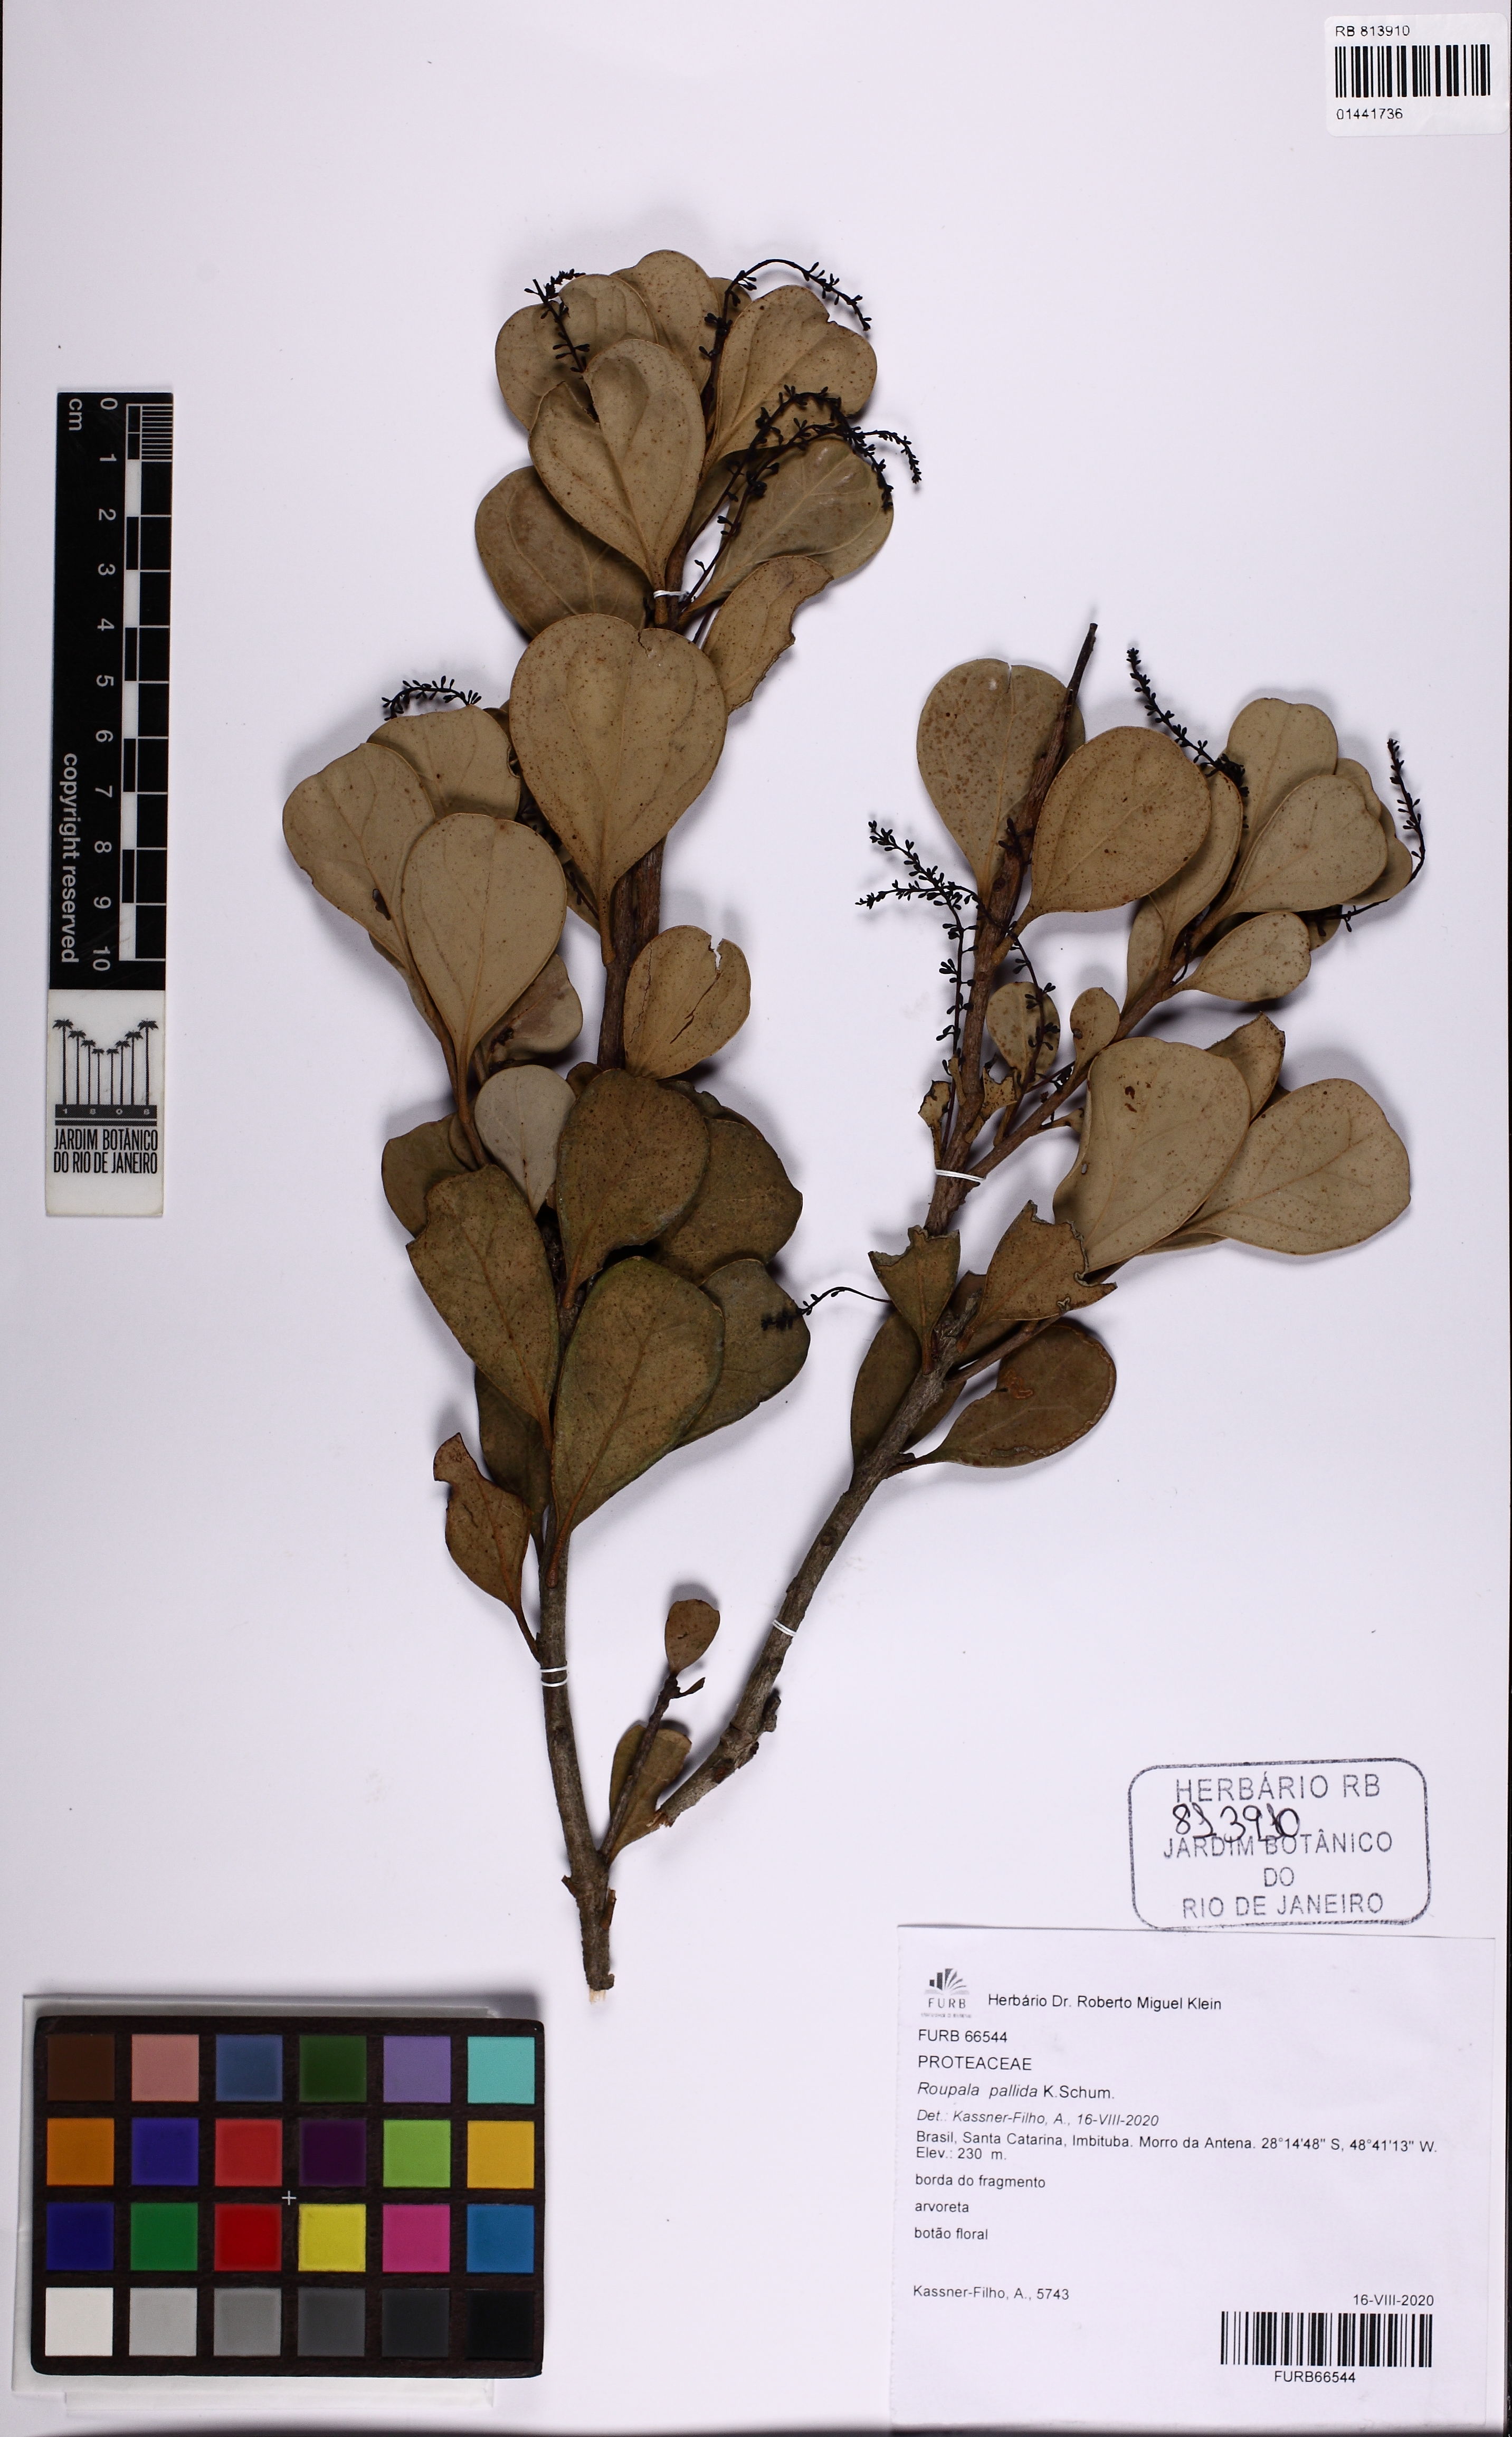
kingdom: Plantae
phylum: Tracheophyta
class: Magnoliopsida
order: Proteales
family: Proteaceae
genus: Roupala
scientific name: Roupala pallida
